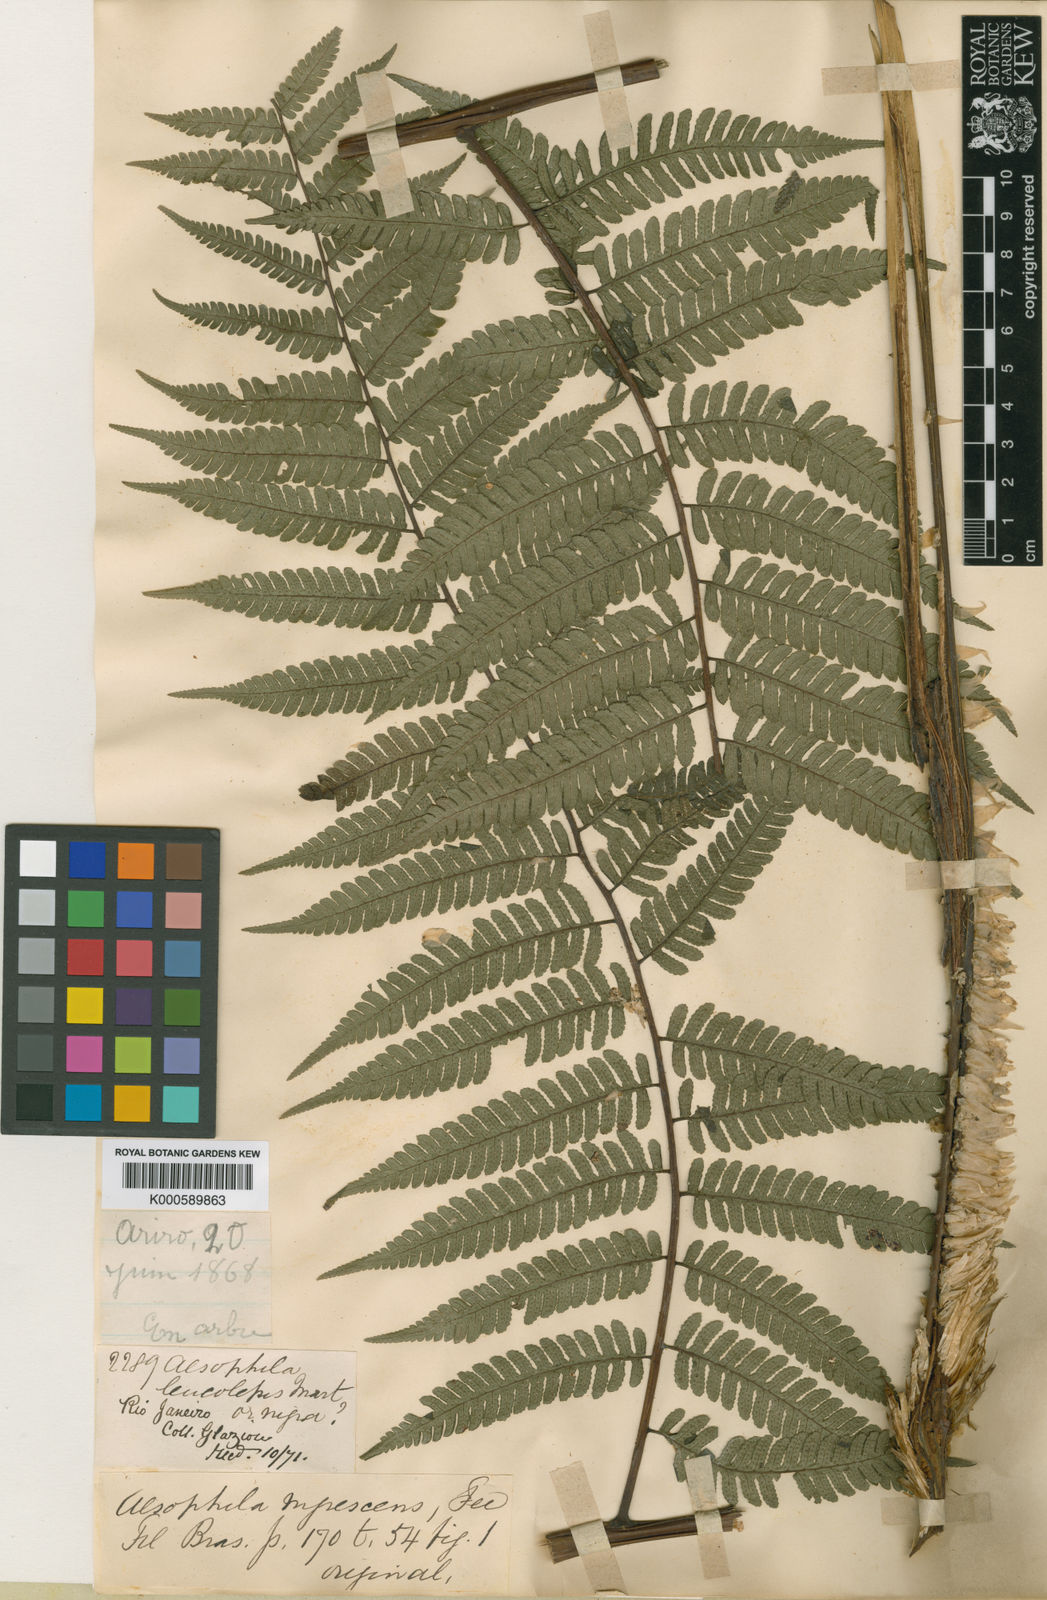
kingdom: Plantae
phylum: Tracheophyta
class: Polypodiopsida
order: Cyatheales
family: Cyatheaceae
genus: Sphaeropteris
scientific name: Sphaeropteris leucolepis
